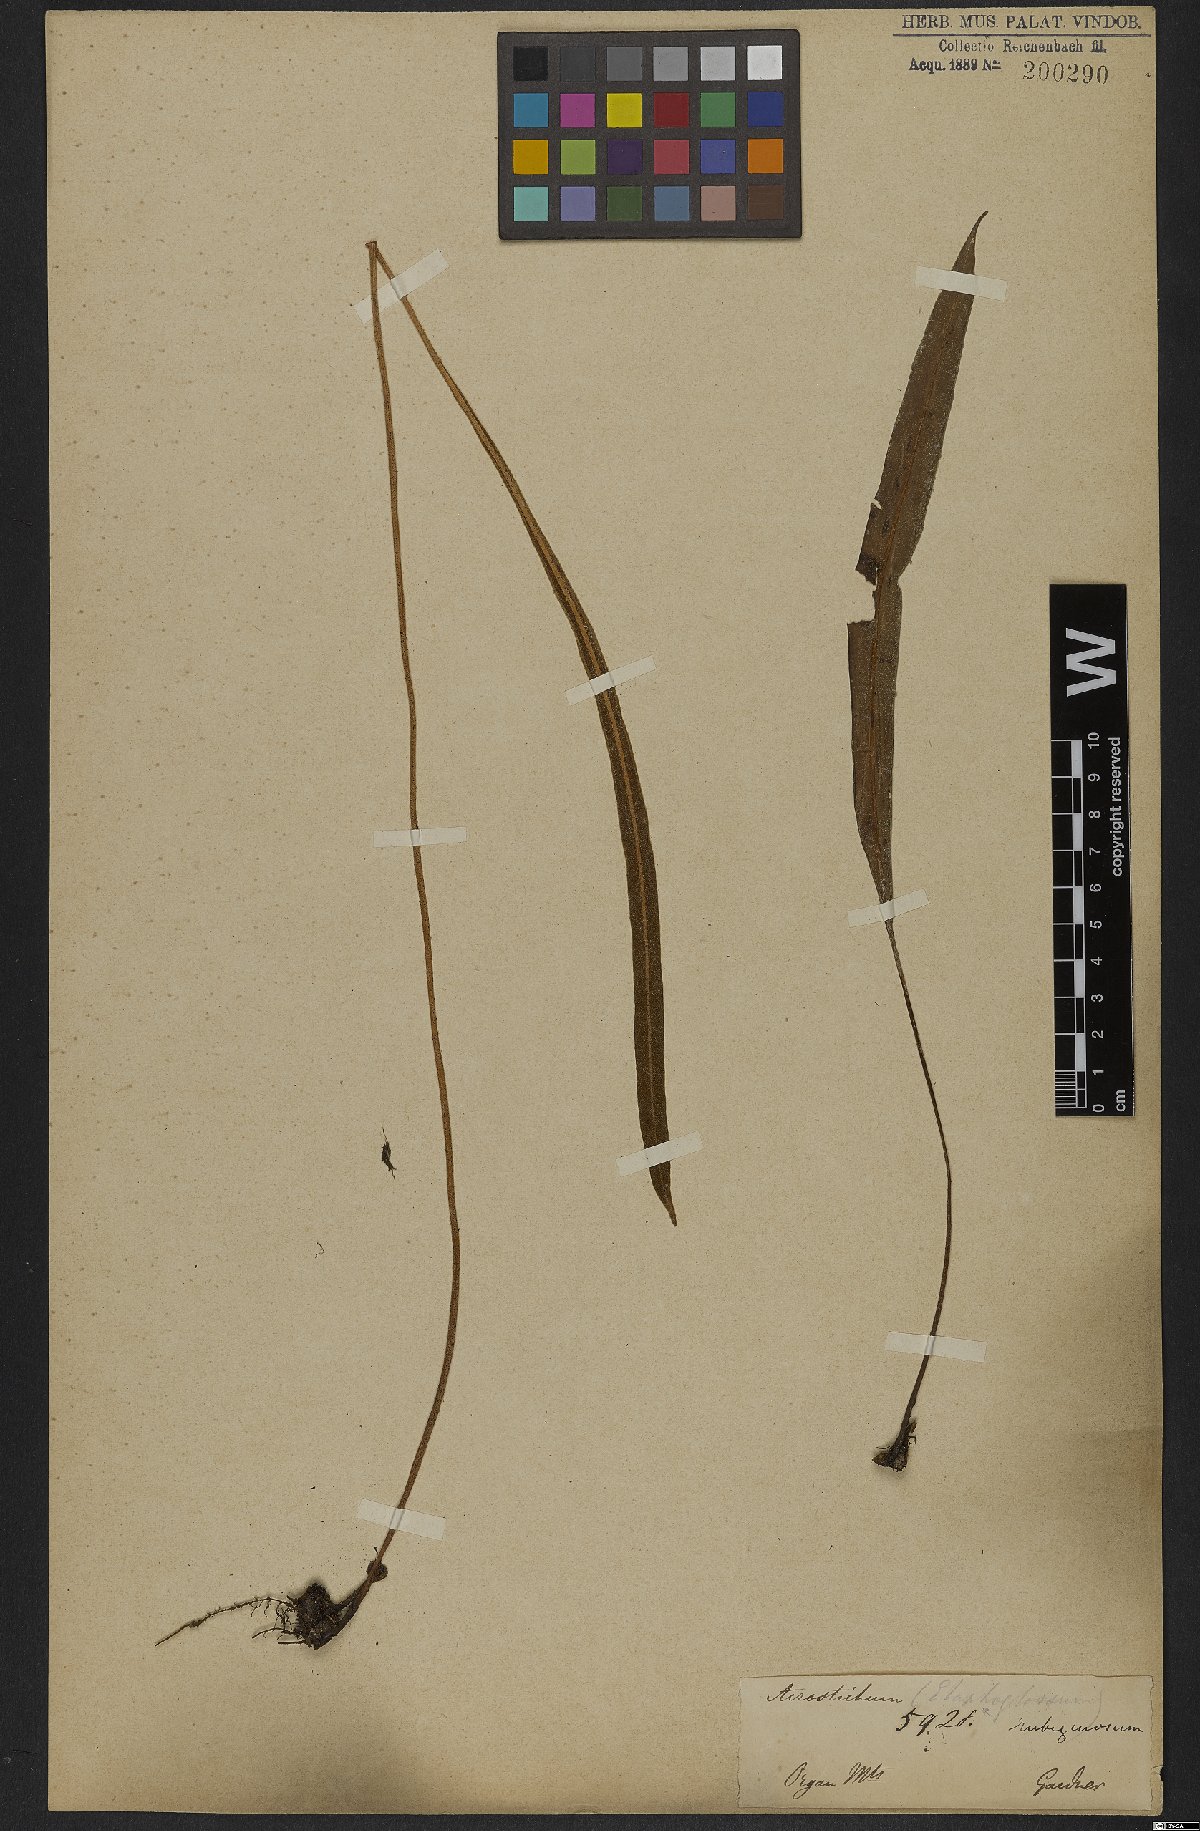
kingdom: Plantae
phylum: Tracheophyta
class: Polypodiopsida
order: Polypodiales
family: Dryopteridaceae
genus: Elaphoglossum
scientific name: Elaphoglossum tectum
